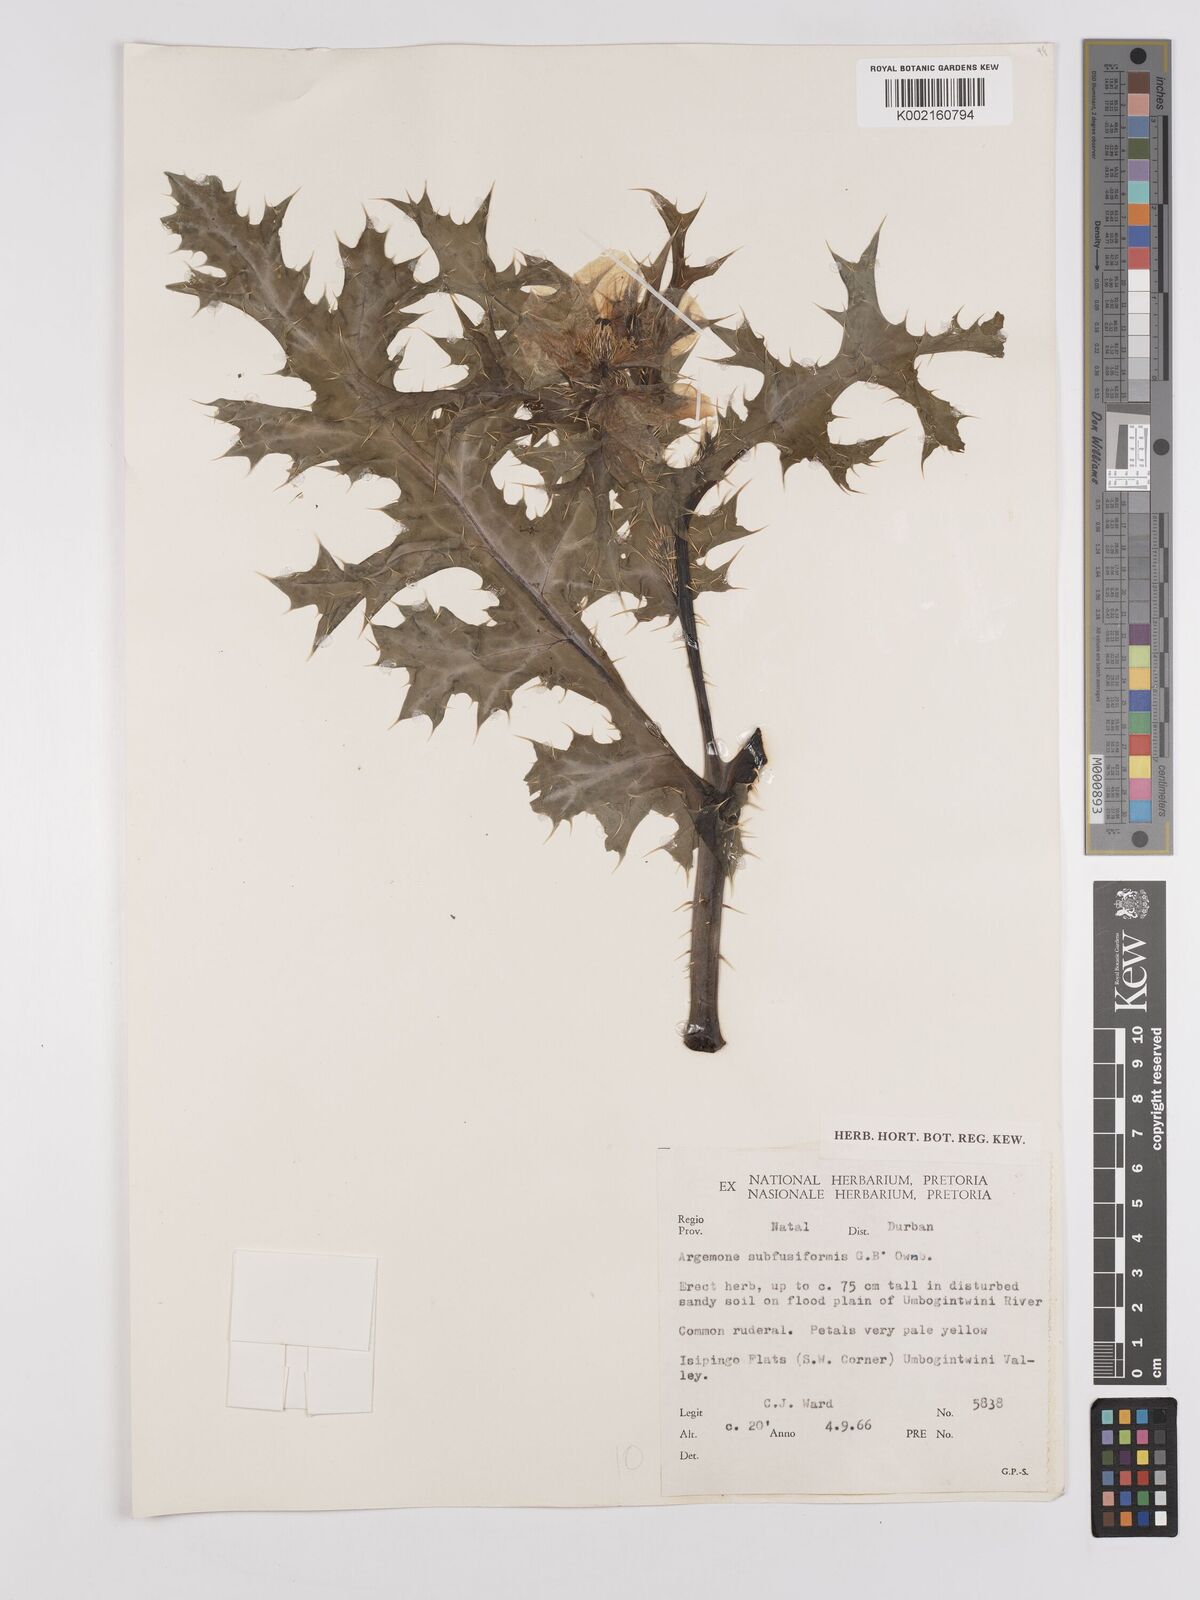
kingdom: Plantae
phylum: Tracheophyta
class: Magnoliopsida
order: Ranunculales
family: Papaveraceae
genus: Argemone
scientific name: Argemone subfusiformis
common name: American-poppy
